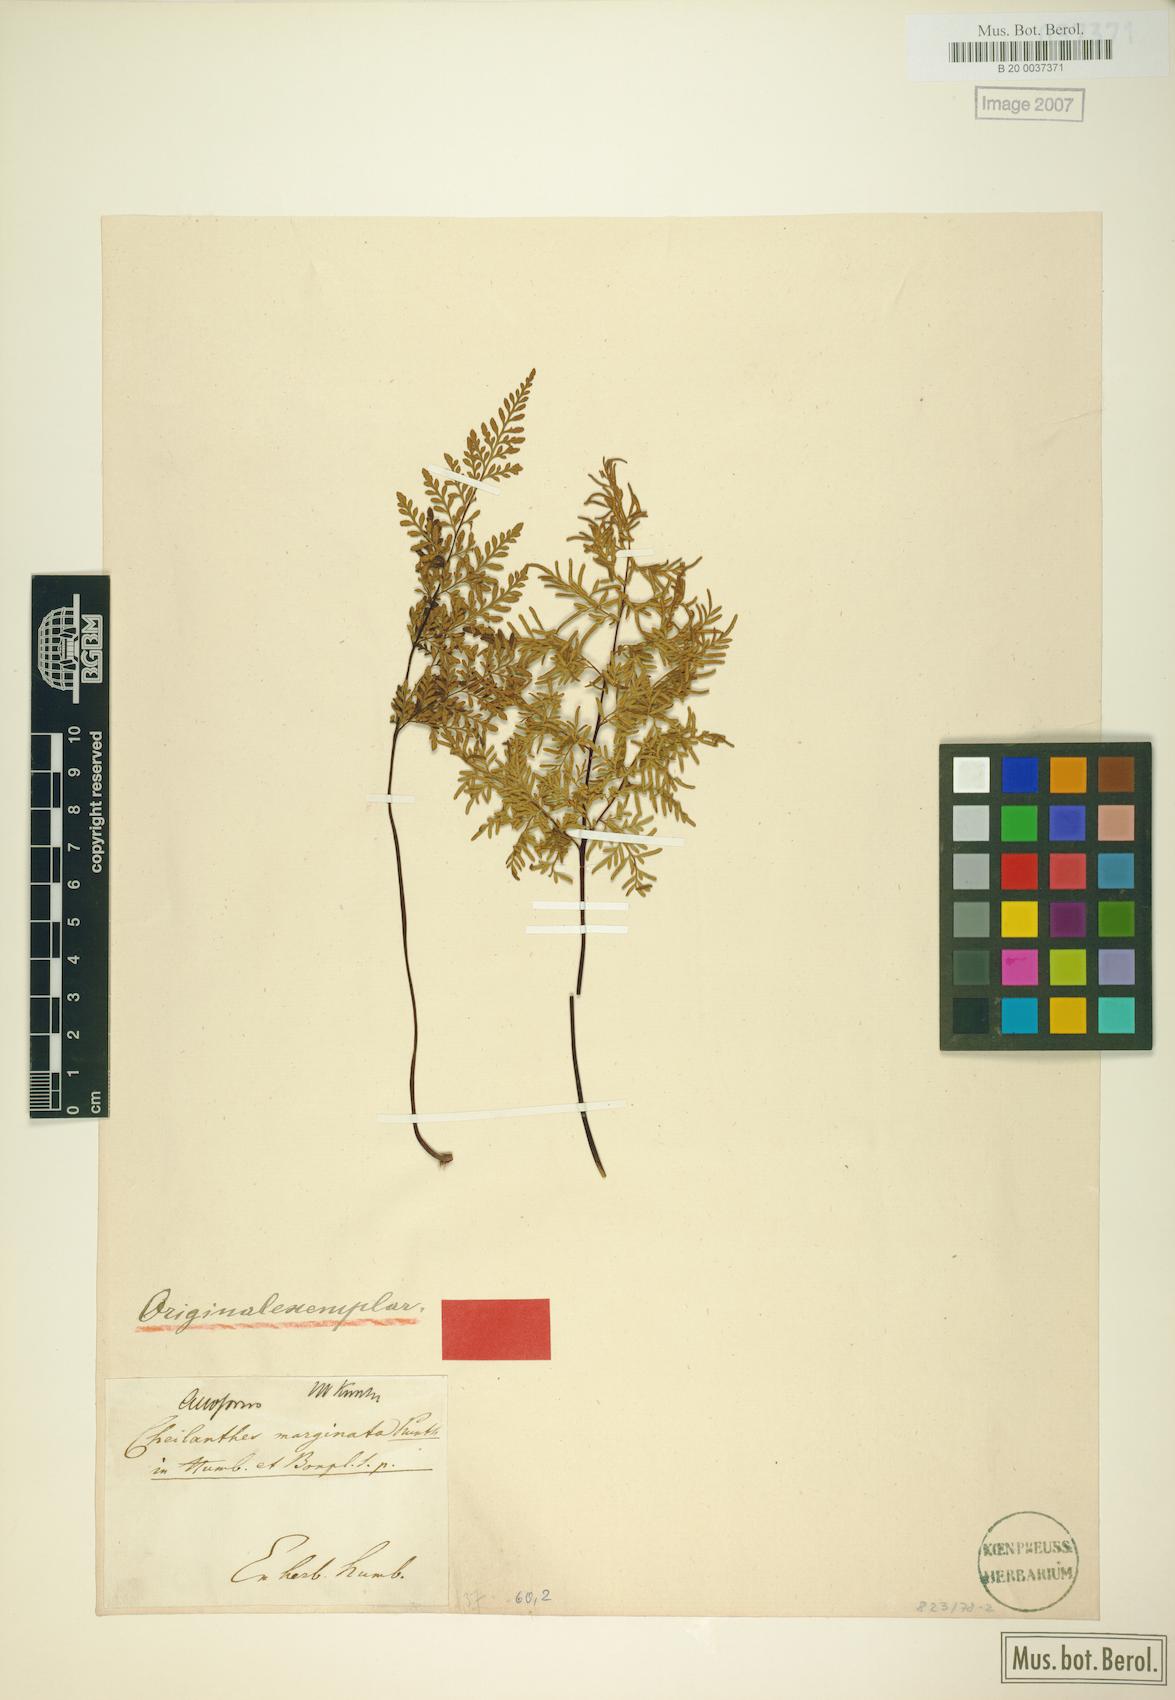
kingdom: Plantae
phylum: Tracheophyta
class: Polypodiopsida
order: Polypodiales
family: Pteridaceae
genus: Gaga
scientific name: Gaga marginata
